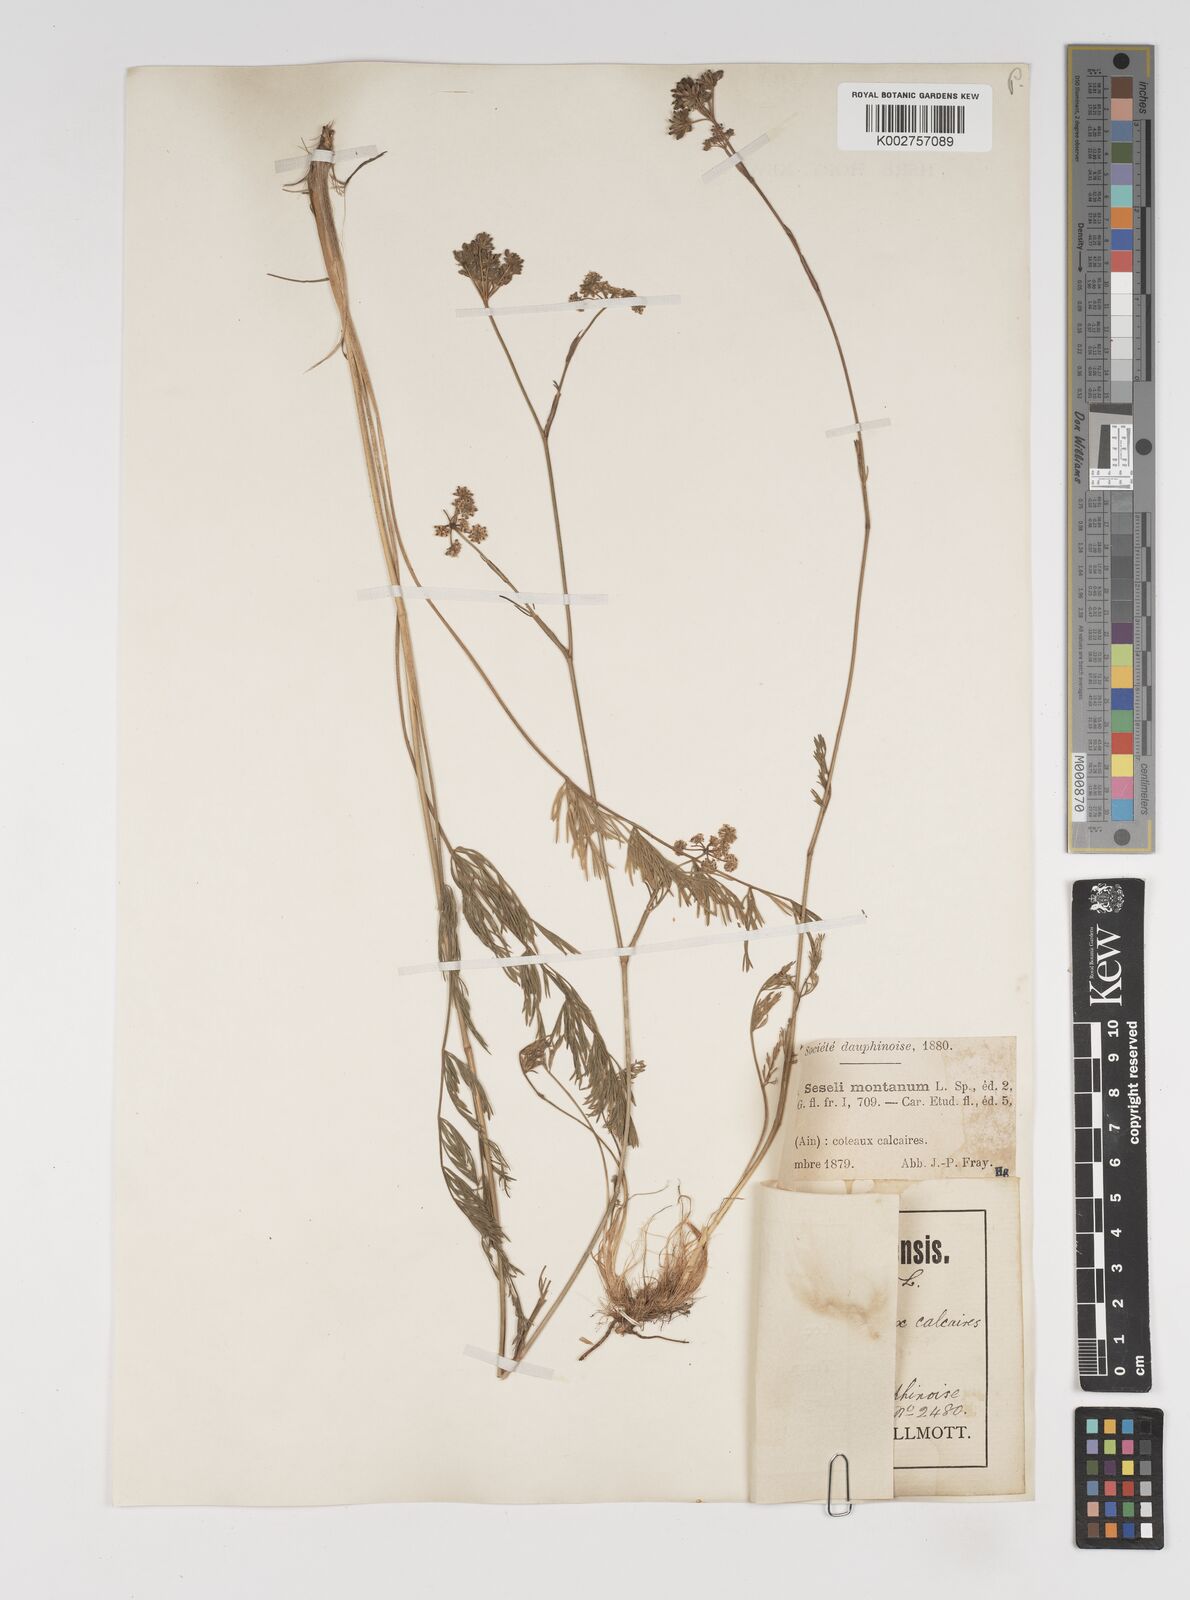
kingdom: Plantae
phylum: Tracheophyta
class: Magnoliopsida
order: Apiales
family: Apiaceae
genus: Seseli
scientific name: Seseli montanum
